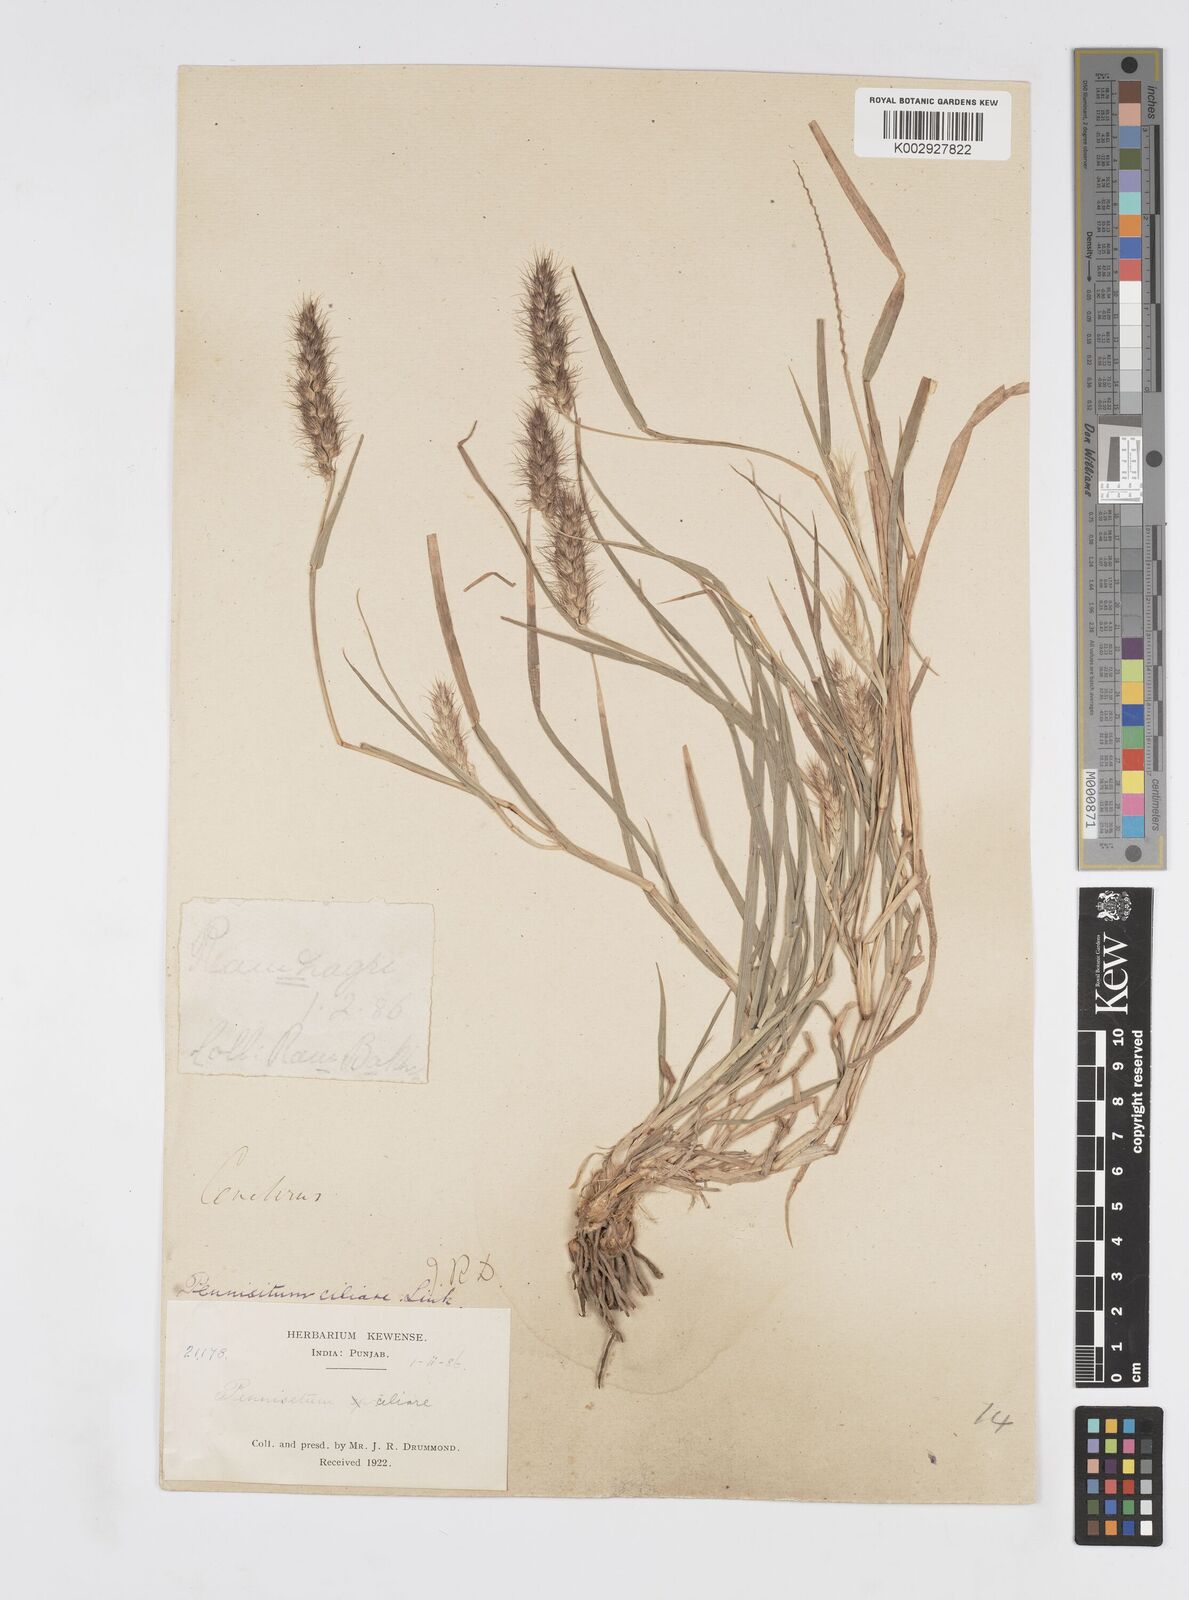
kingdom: Plantae
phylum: Tracheophyta
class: Liliopsida
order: Poales
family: Poaceae
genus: Cenchrus
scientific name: Cenchrus ciliaris
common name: Buffelgrass
